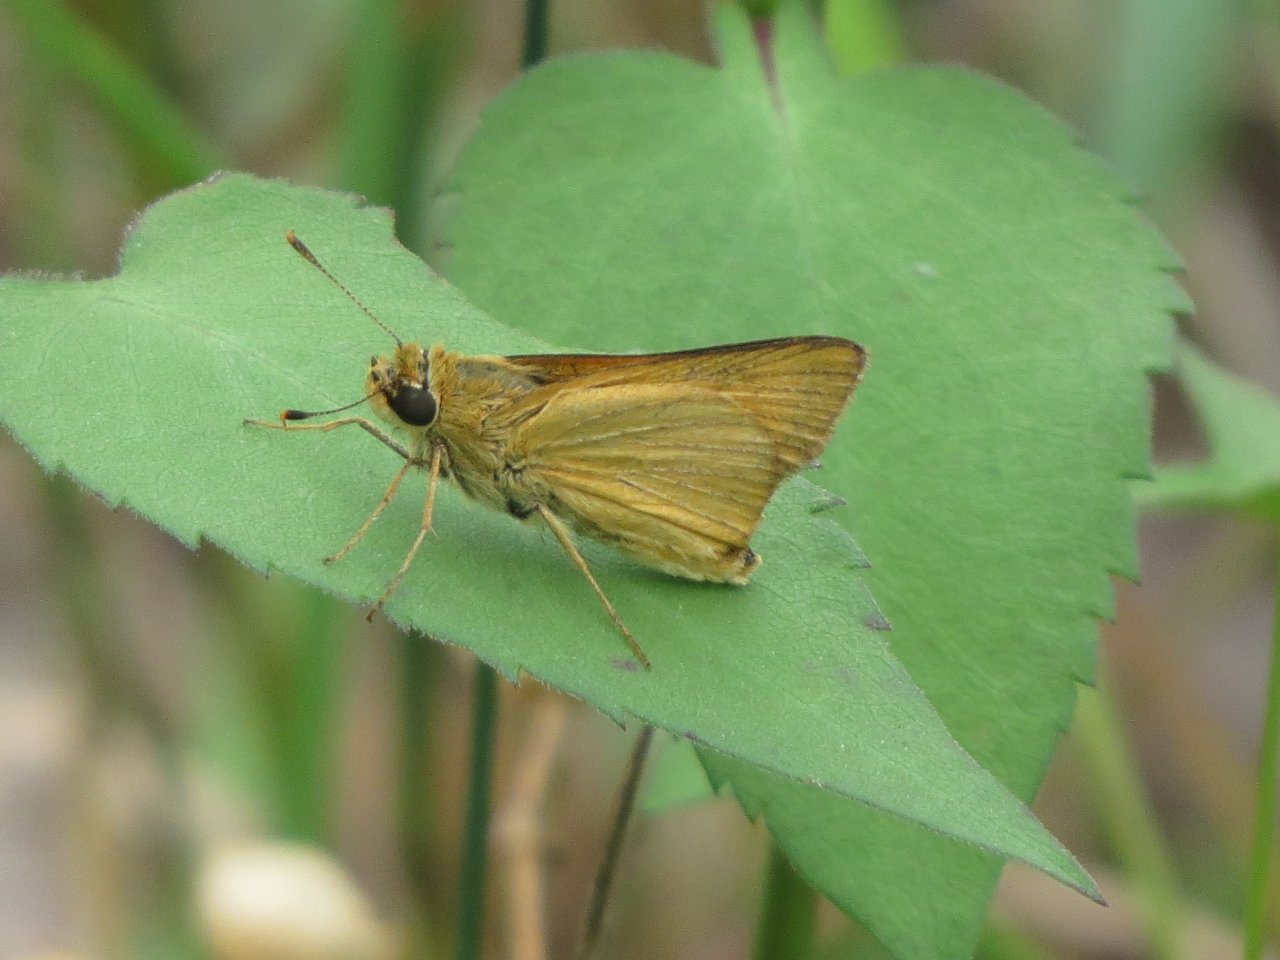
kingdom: Animalia
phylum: Arthropoda
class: Insecta
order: Lepidoptera
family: Hesperiidae
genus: Atrytone
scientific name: Atrytone delaware
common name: Delaware Skipper
